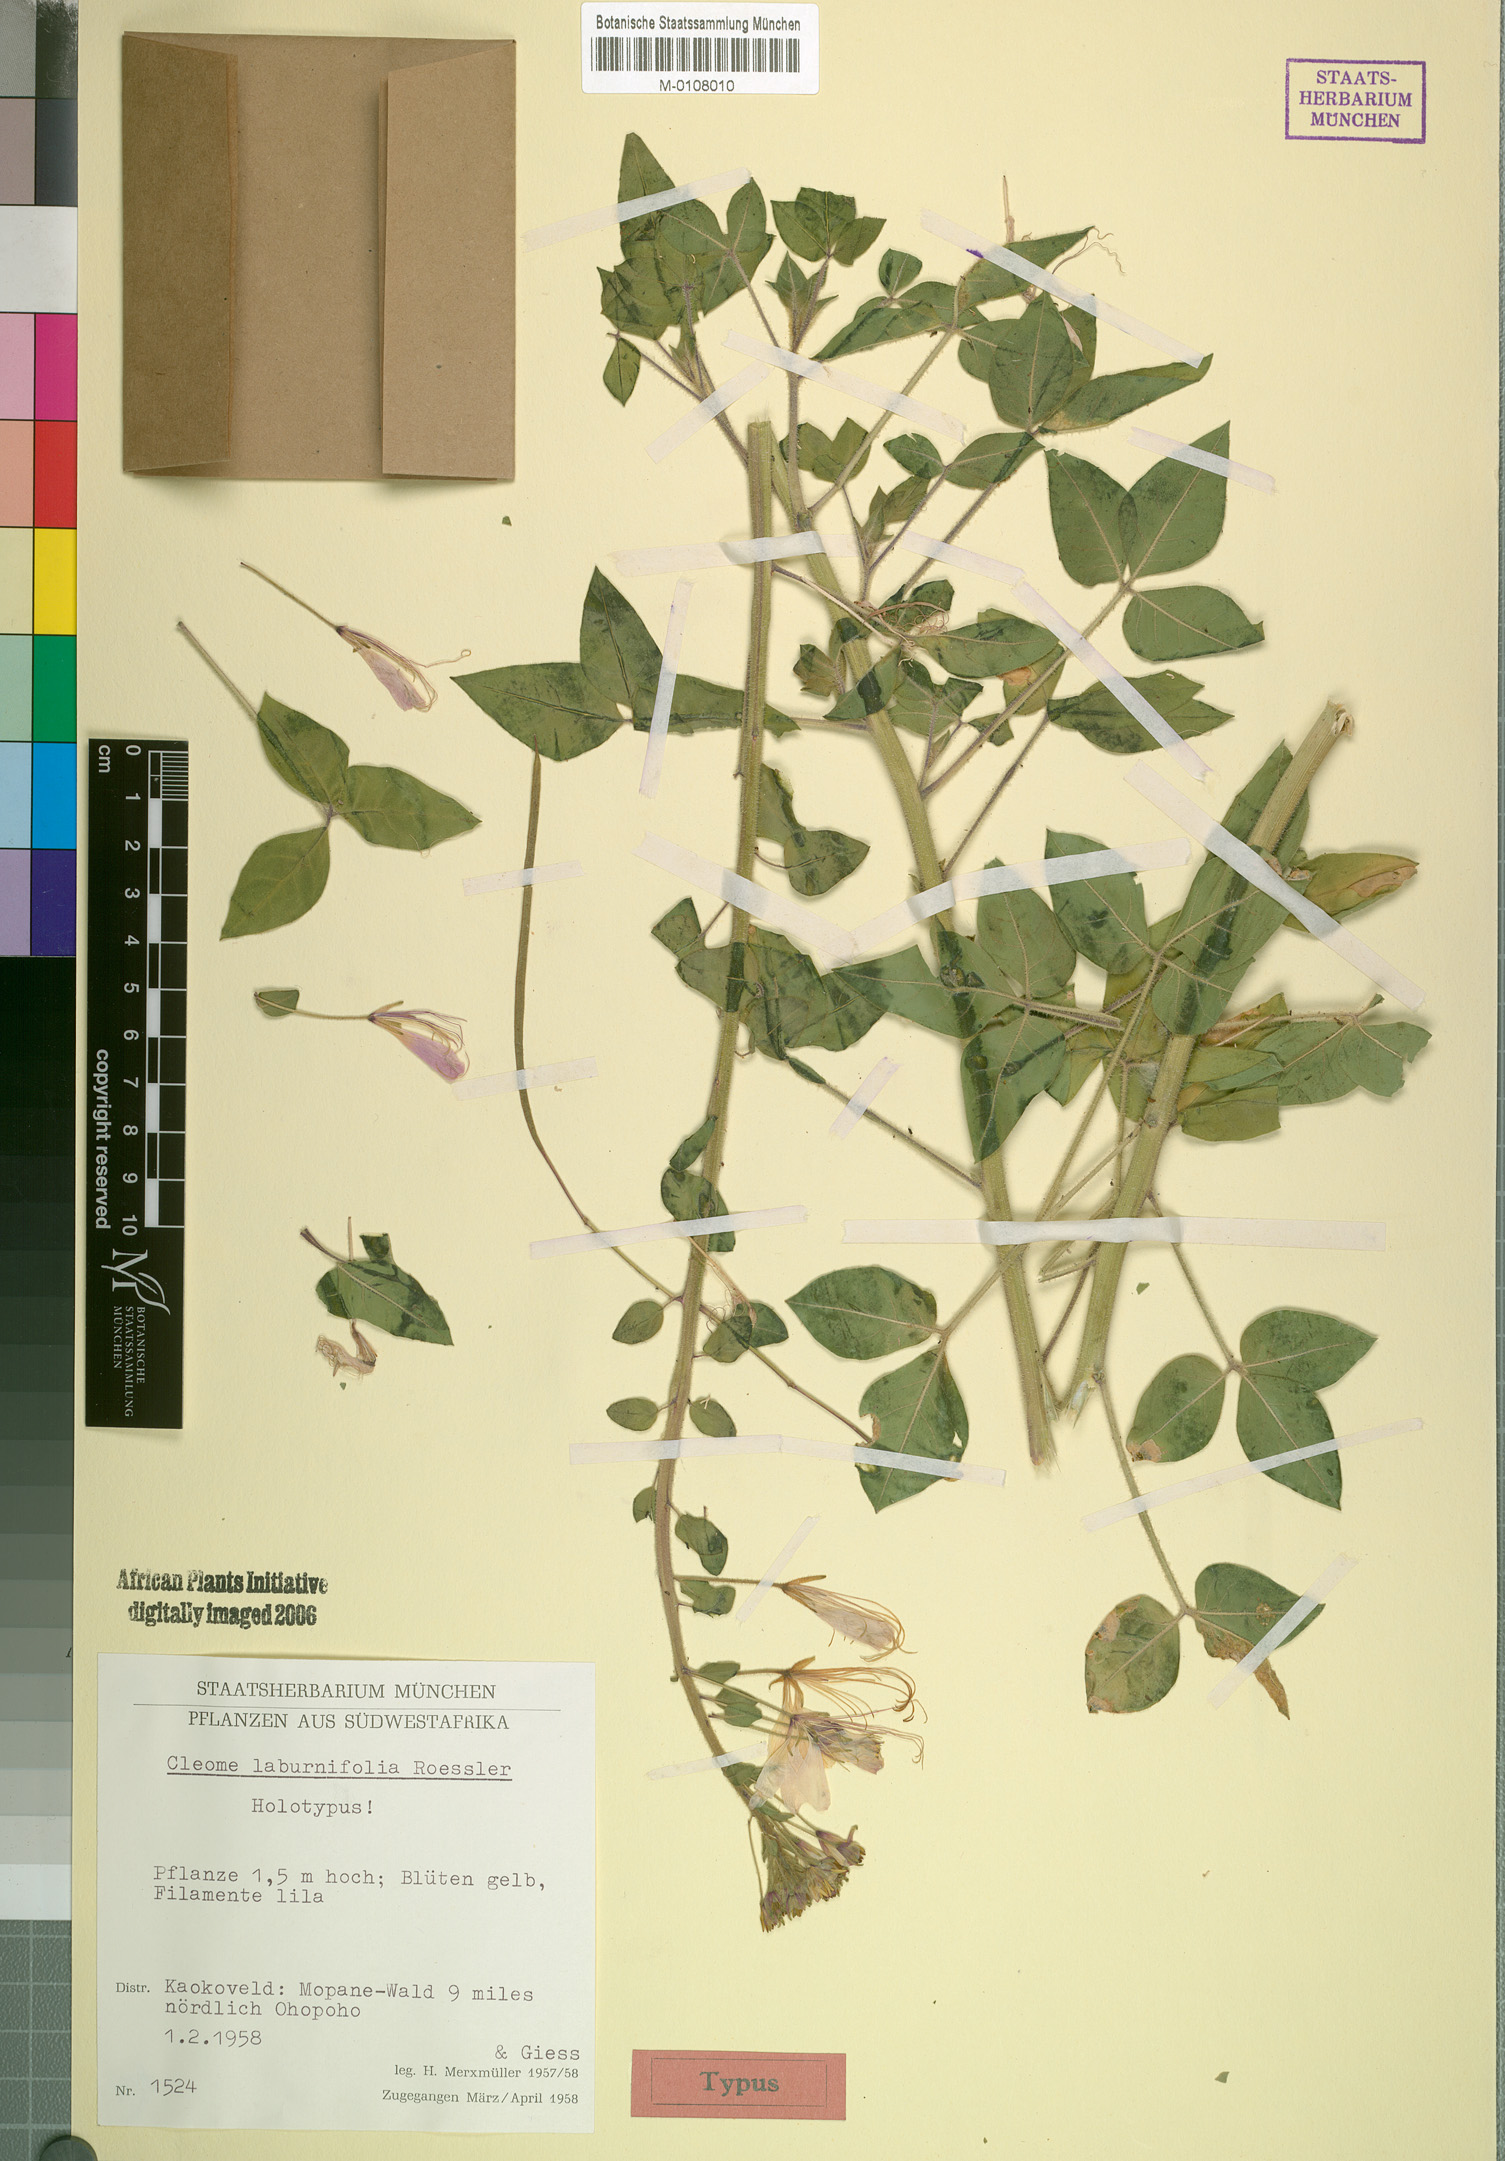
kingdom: Plantae
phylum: Tracheophyta
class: Magnoliopsida
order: Brassicales
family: Cleomaceae
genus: Kersia
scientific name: Kersia laburnifolia
